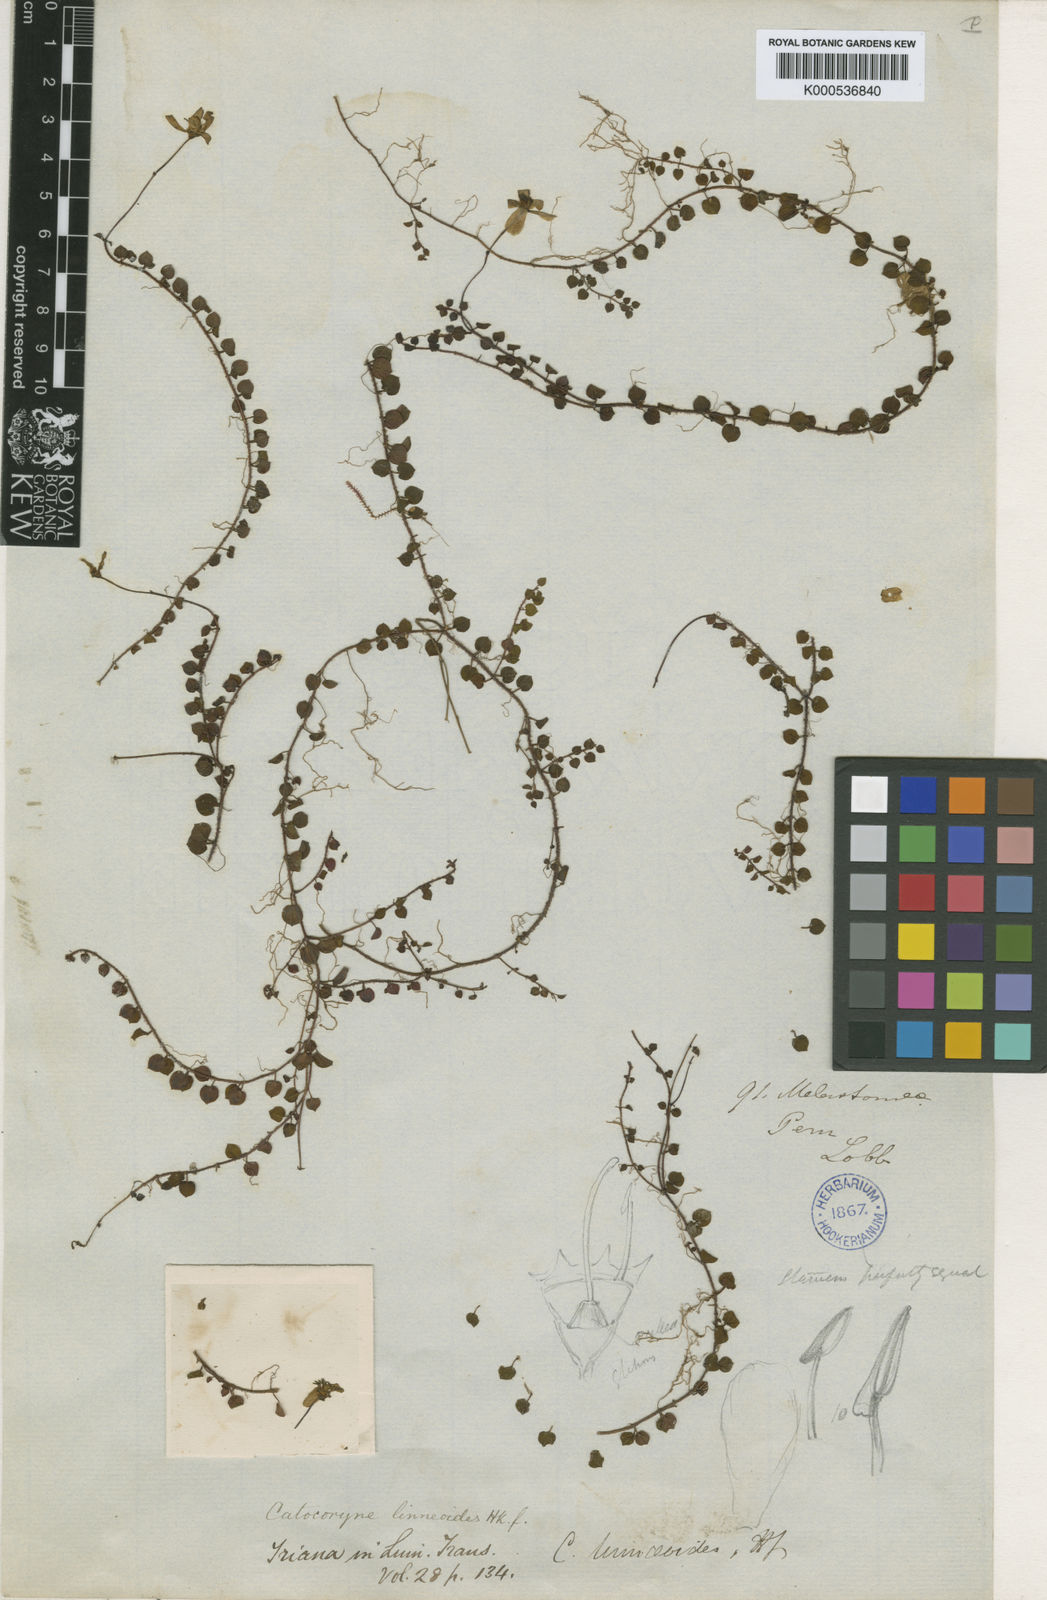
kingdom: Plantae
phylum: Tracheophyta
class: Magnoliopsida
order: Myrtales
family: Melastomataceae
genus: Miconia
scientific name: Miconia linneoides
